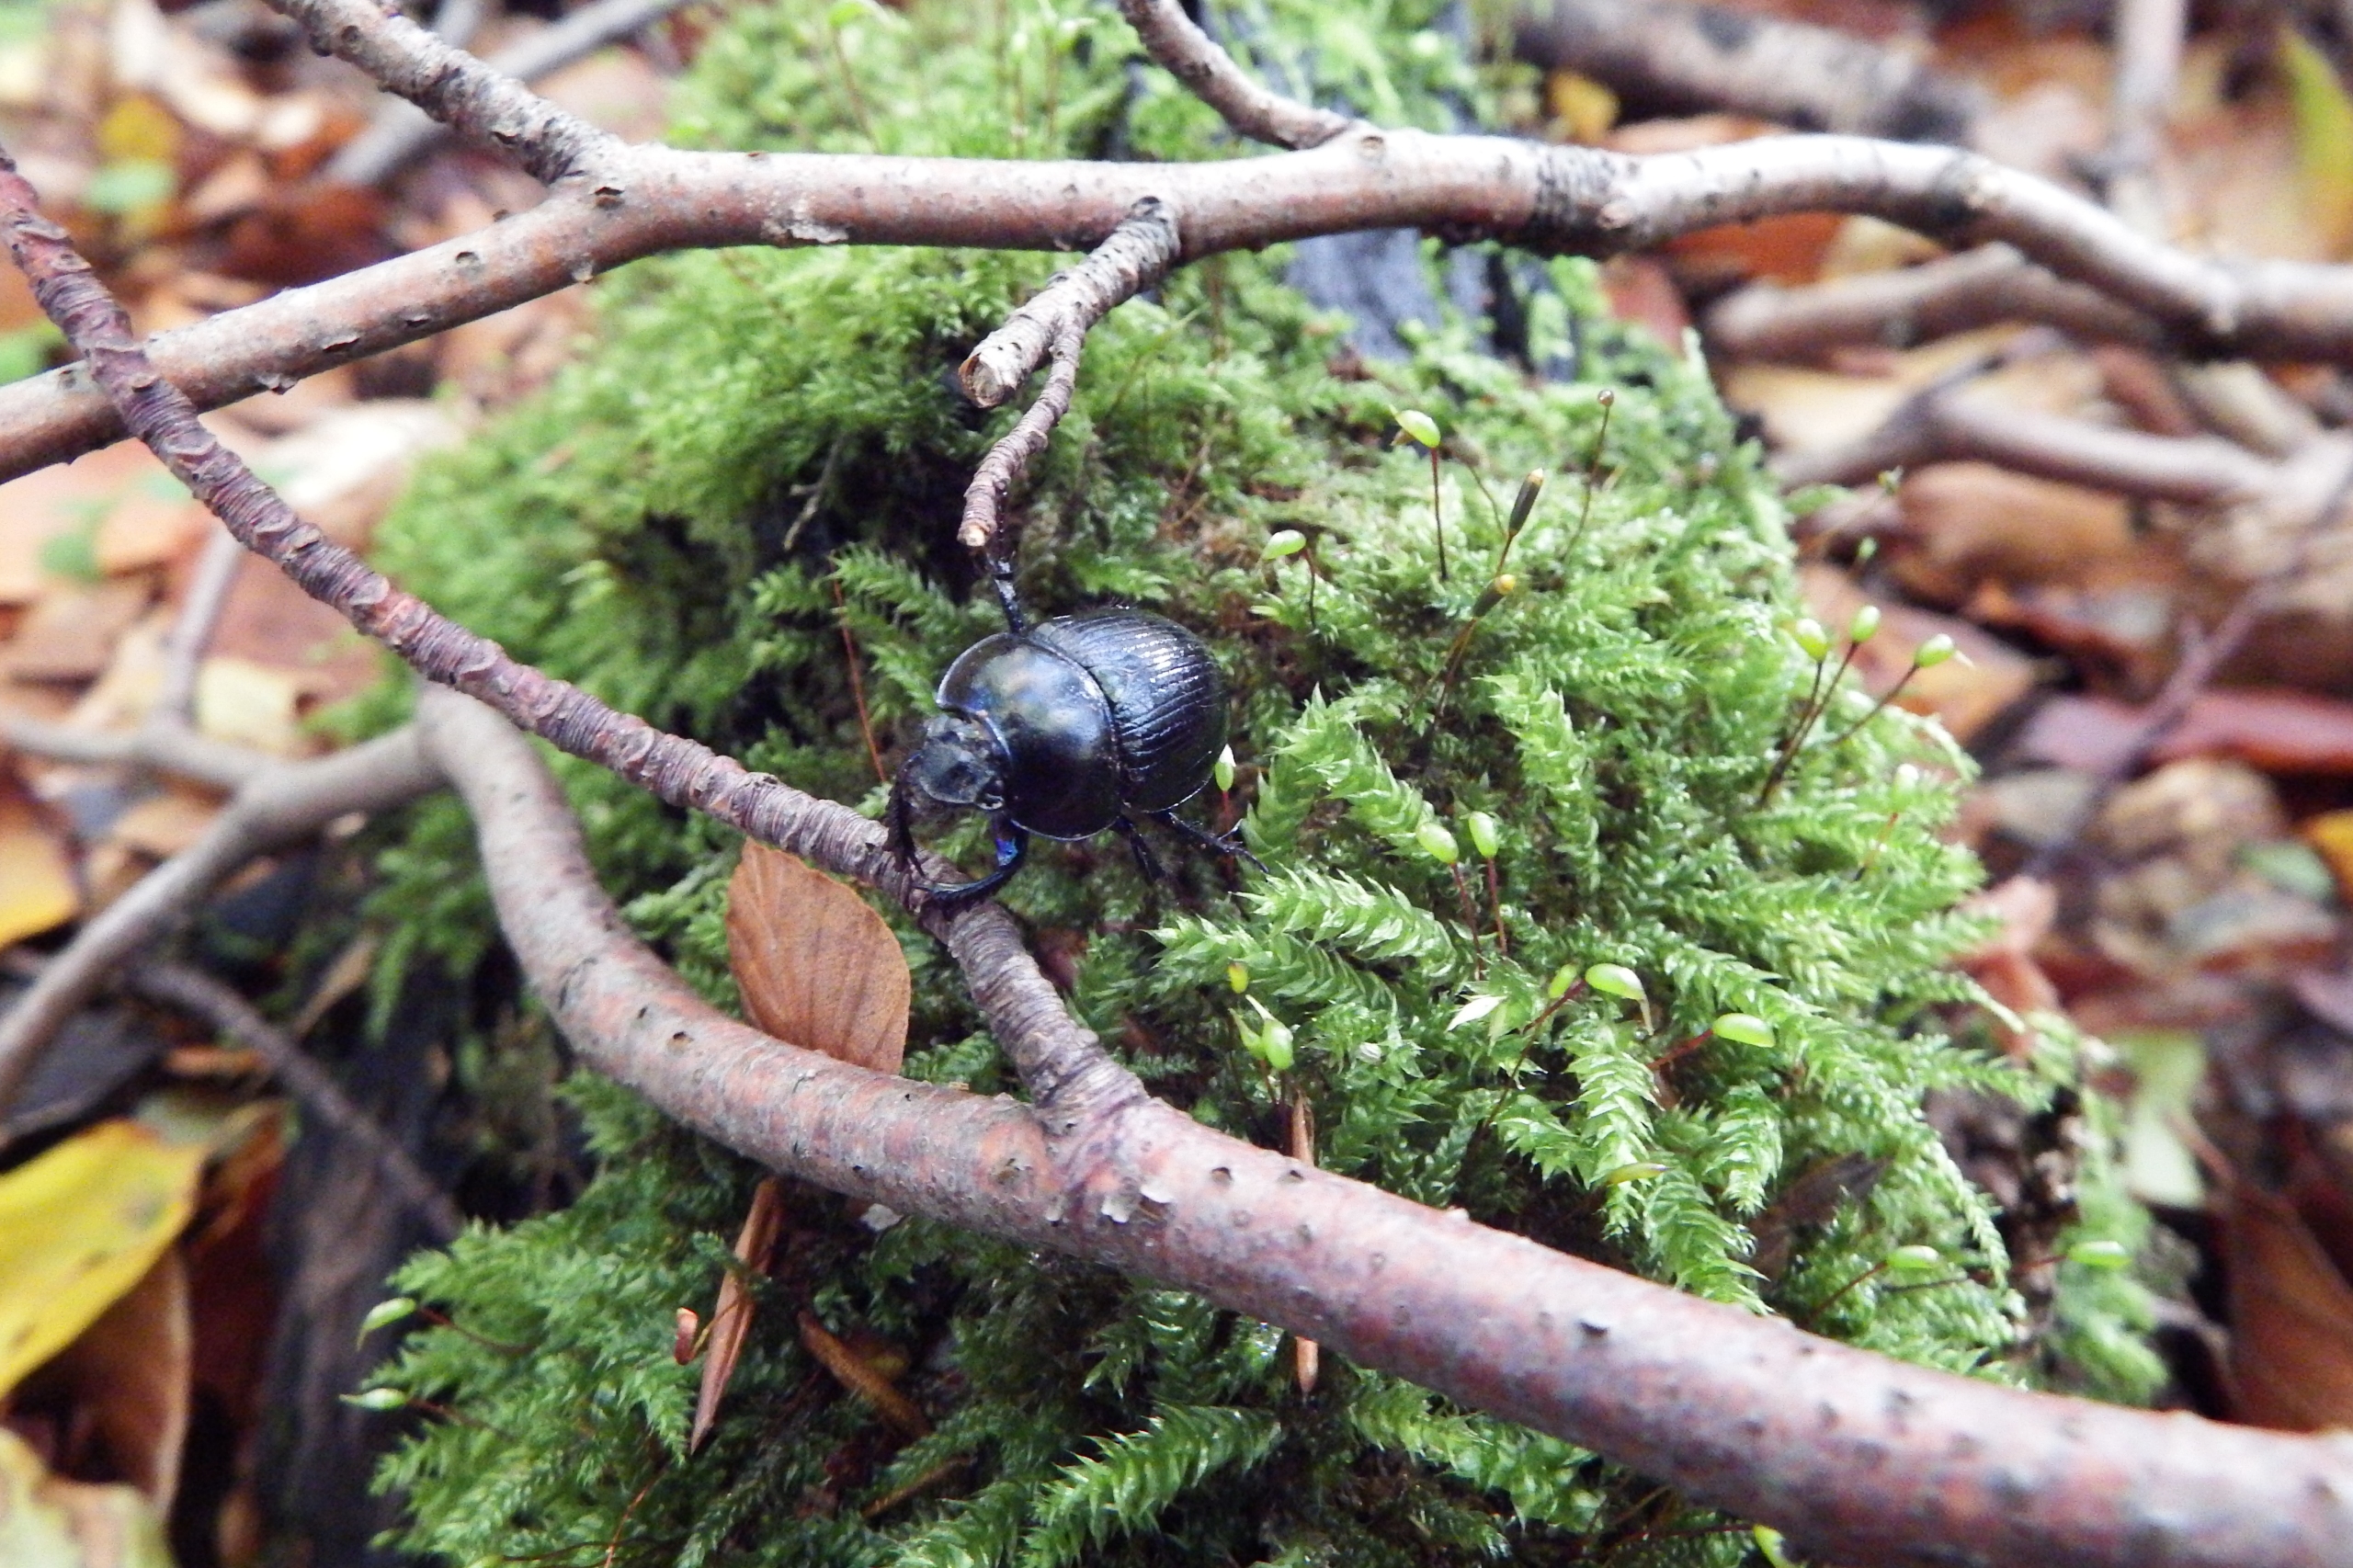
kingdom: Animalia
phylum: Arthropoda
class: Insecta
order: Coleoptera
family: Geotrupidae
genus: Anoplotrupes
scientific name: Anoplotrupes stercorosus
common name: Skovskarnbasse
